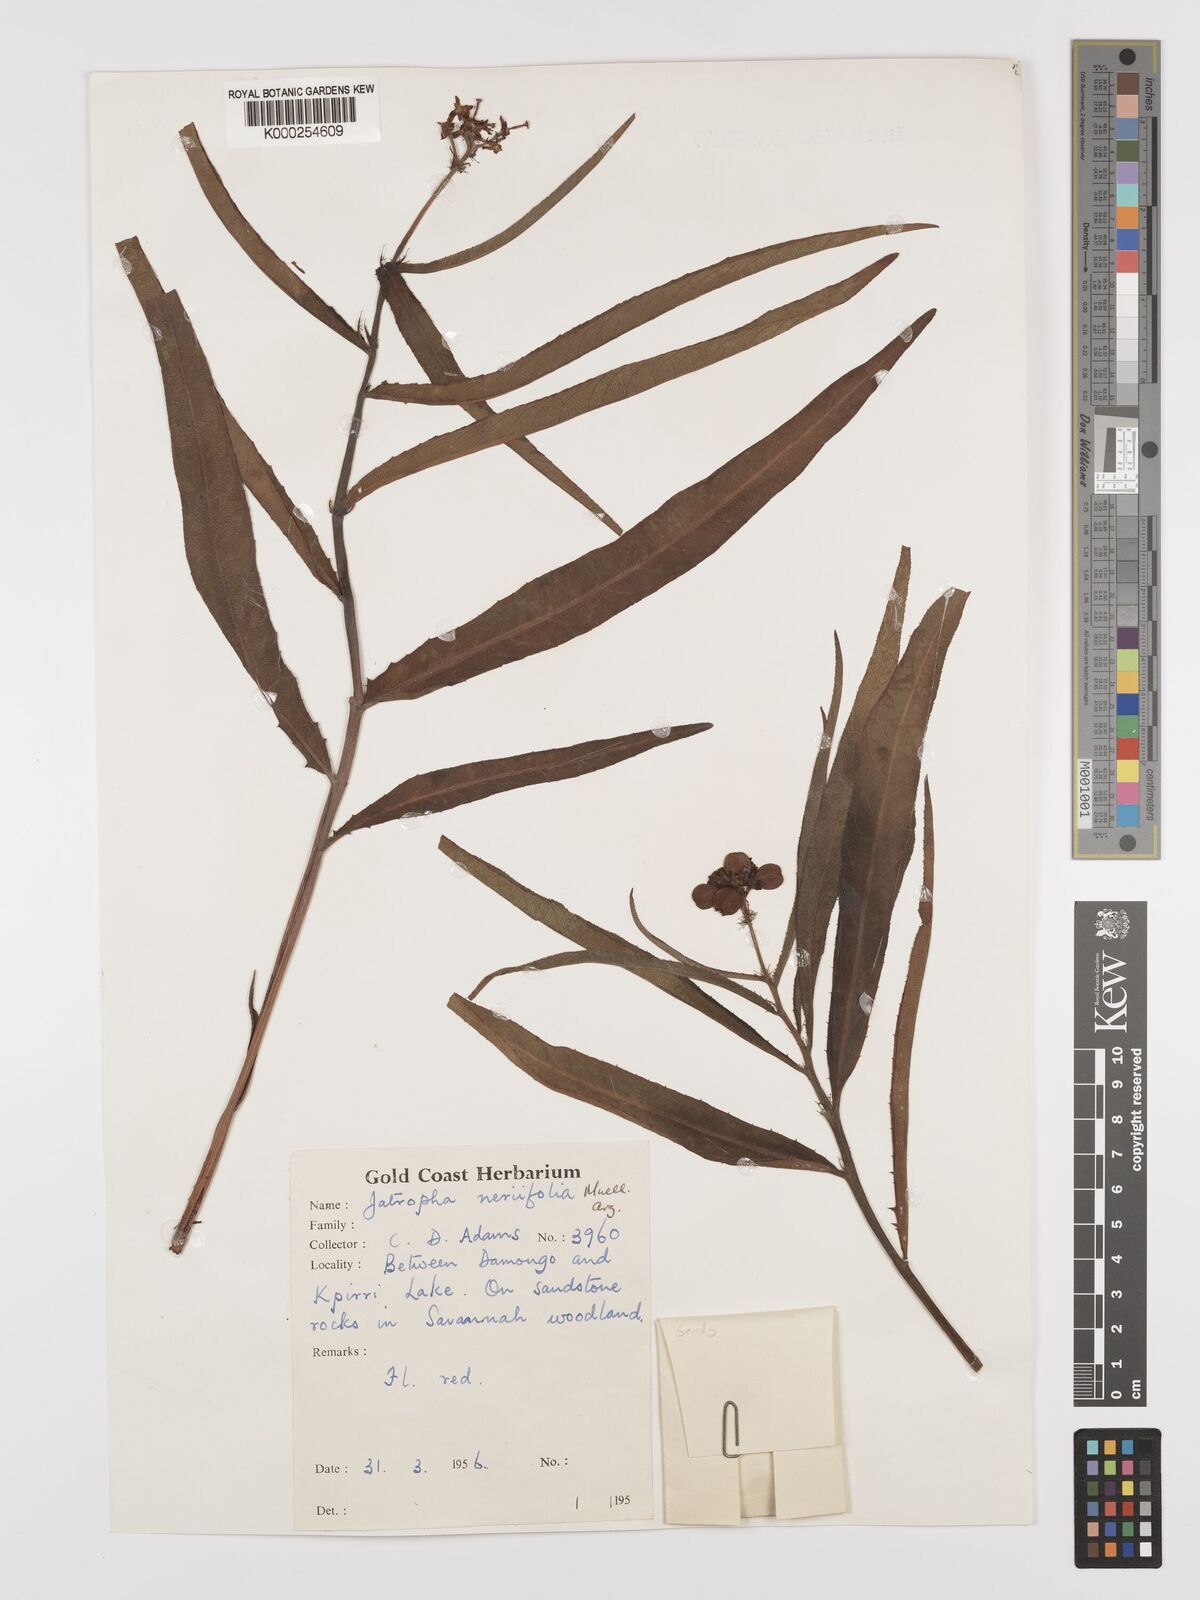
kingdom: Plantae
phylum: Tracheophyta
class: Magnoliopsida
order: Malpighiales
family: Euphorbiaceae
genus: Jatropha
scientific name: Jatropha
